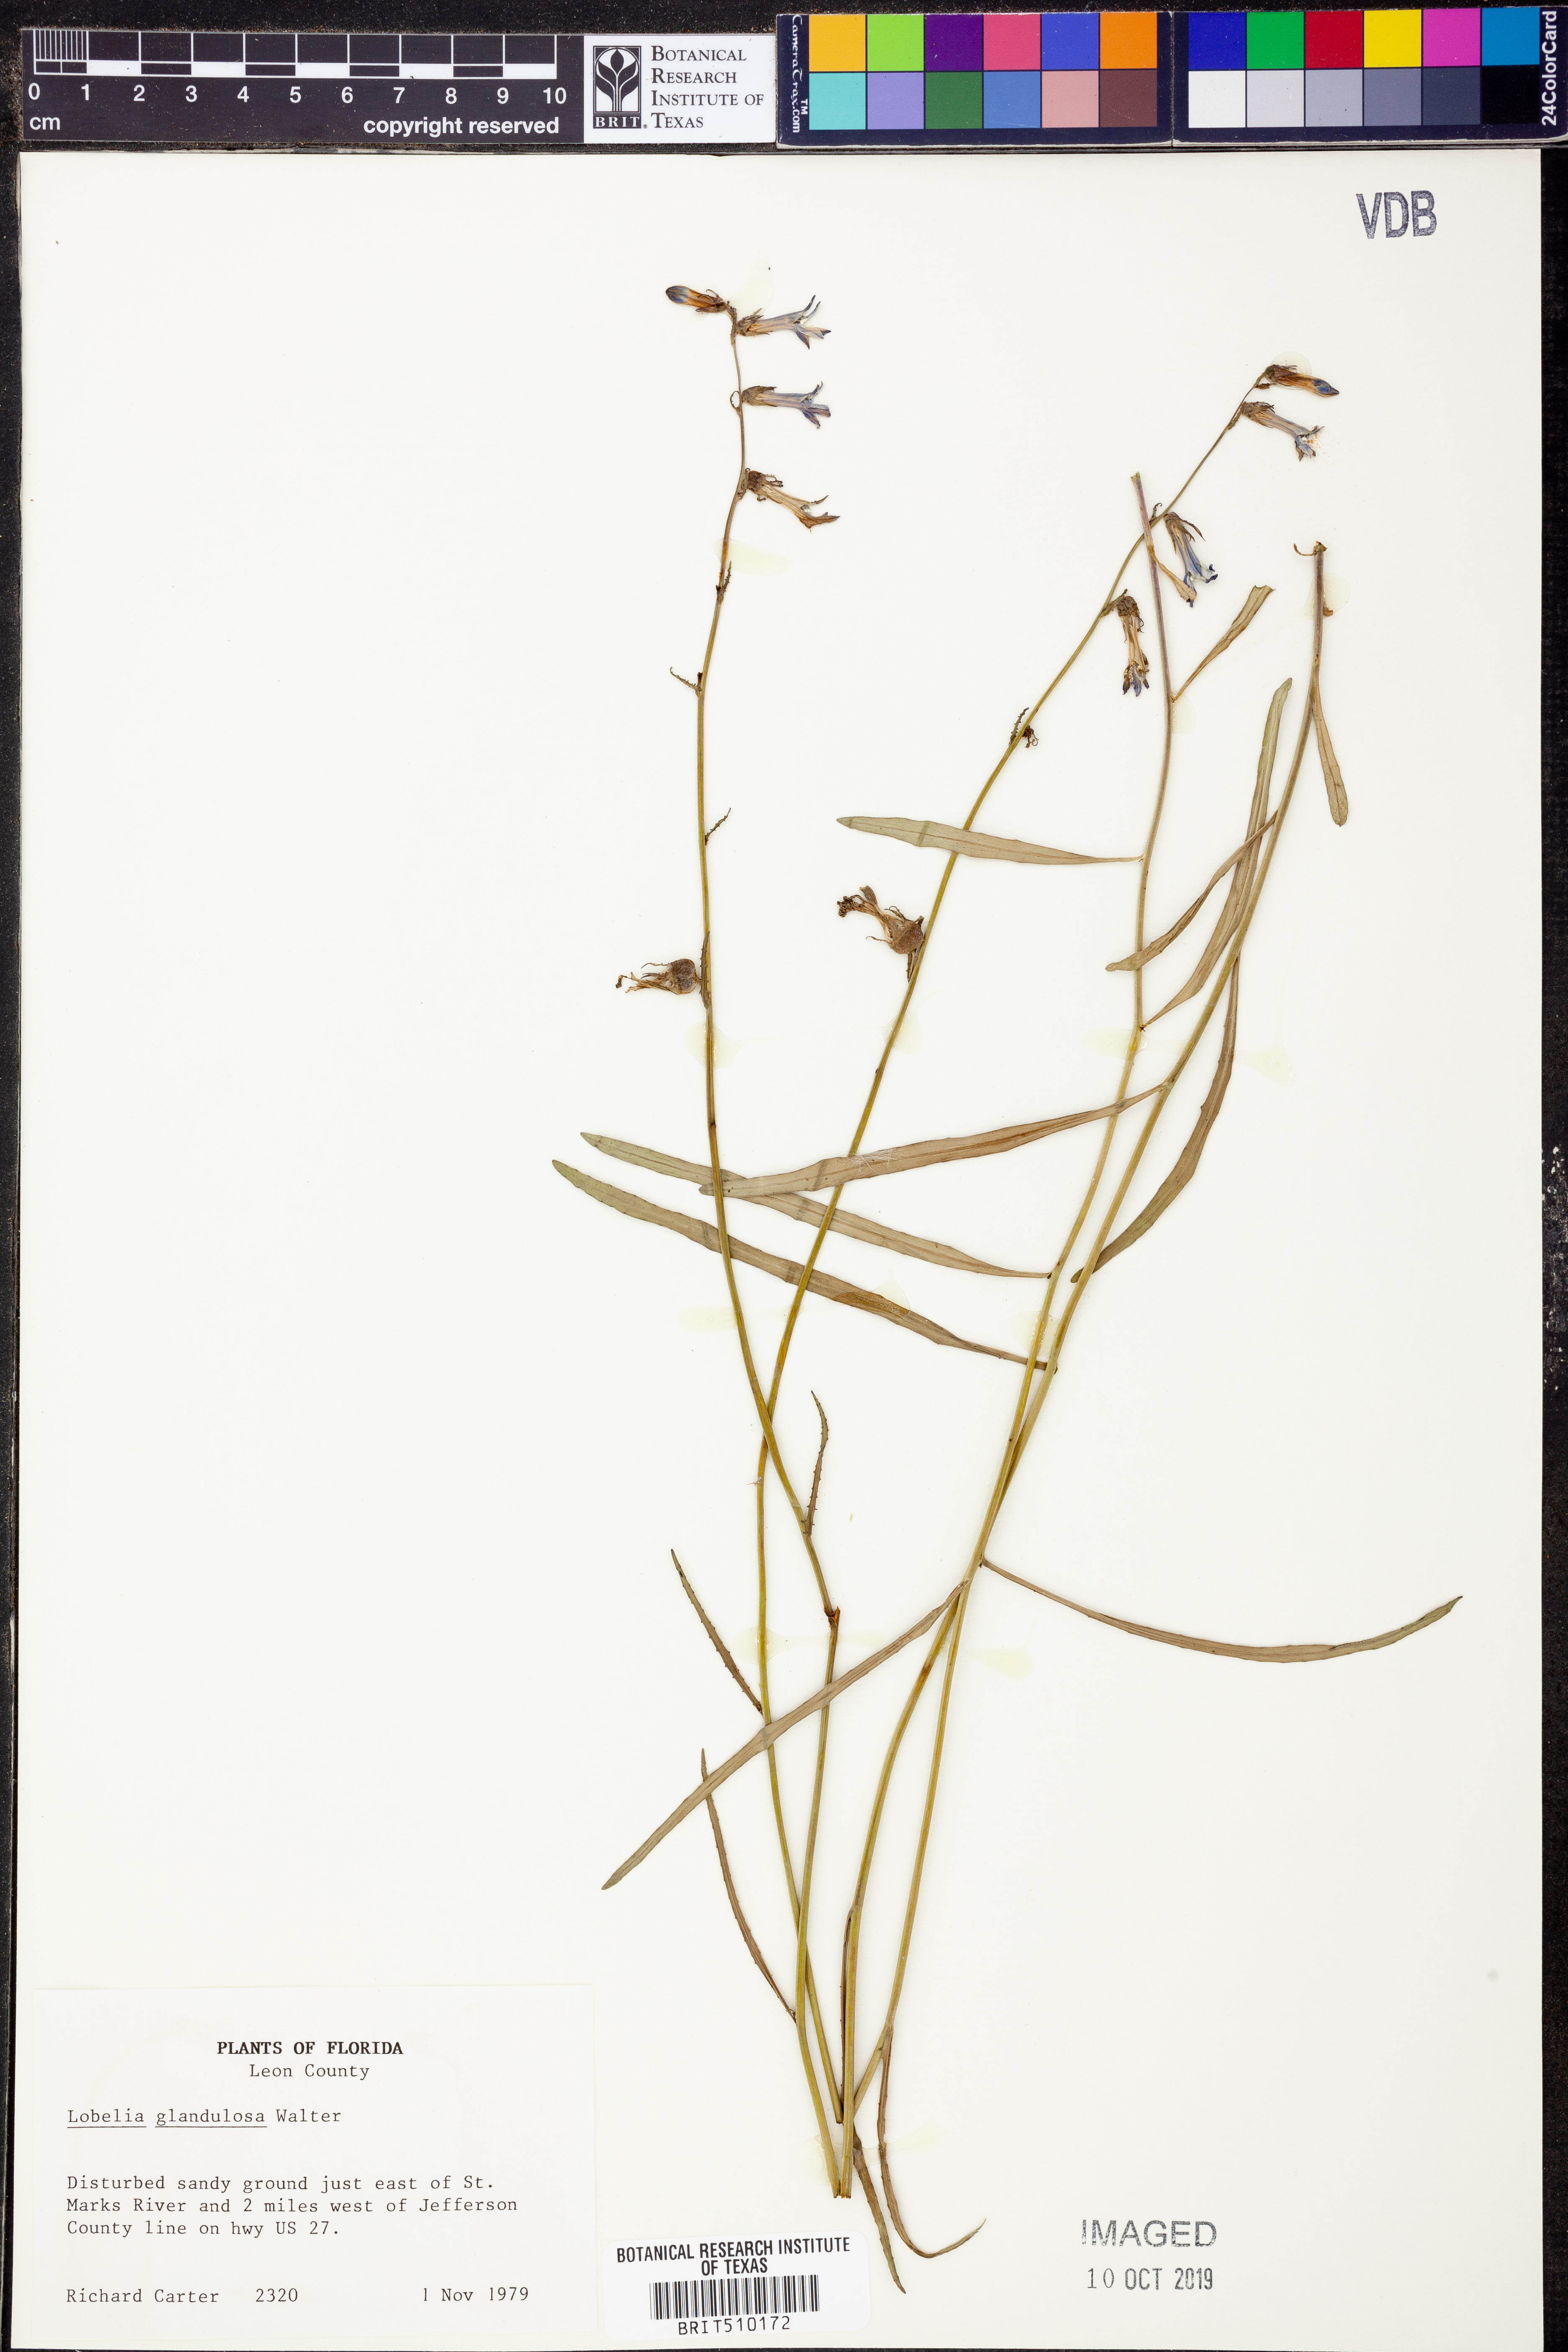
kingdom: Plantae
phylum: Tracheophyta
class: Magnoliopsida
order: Asterales
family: Campanulaceae
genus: Lobelia
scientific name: Lobelia glandulosa
